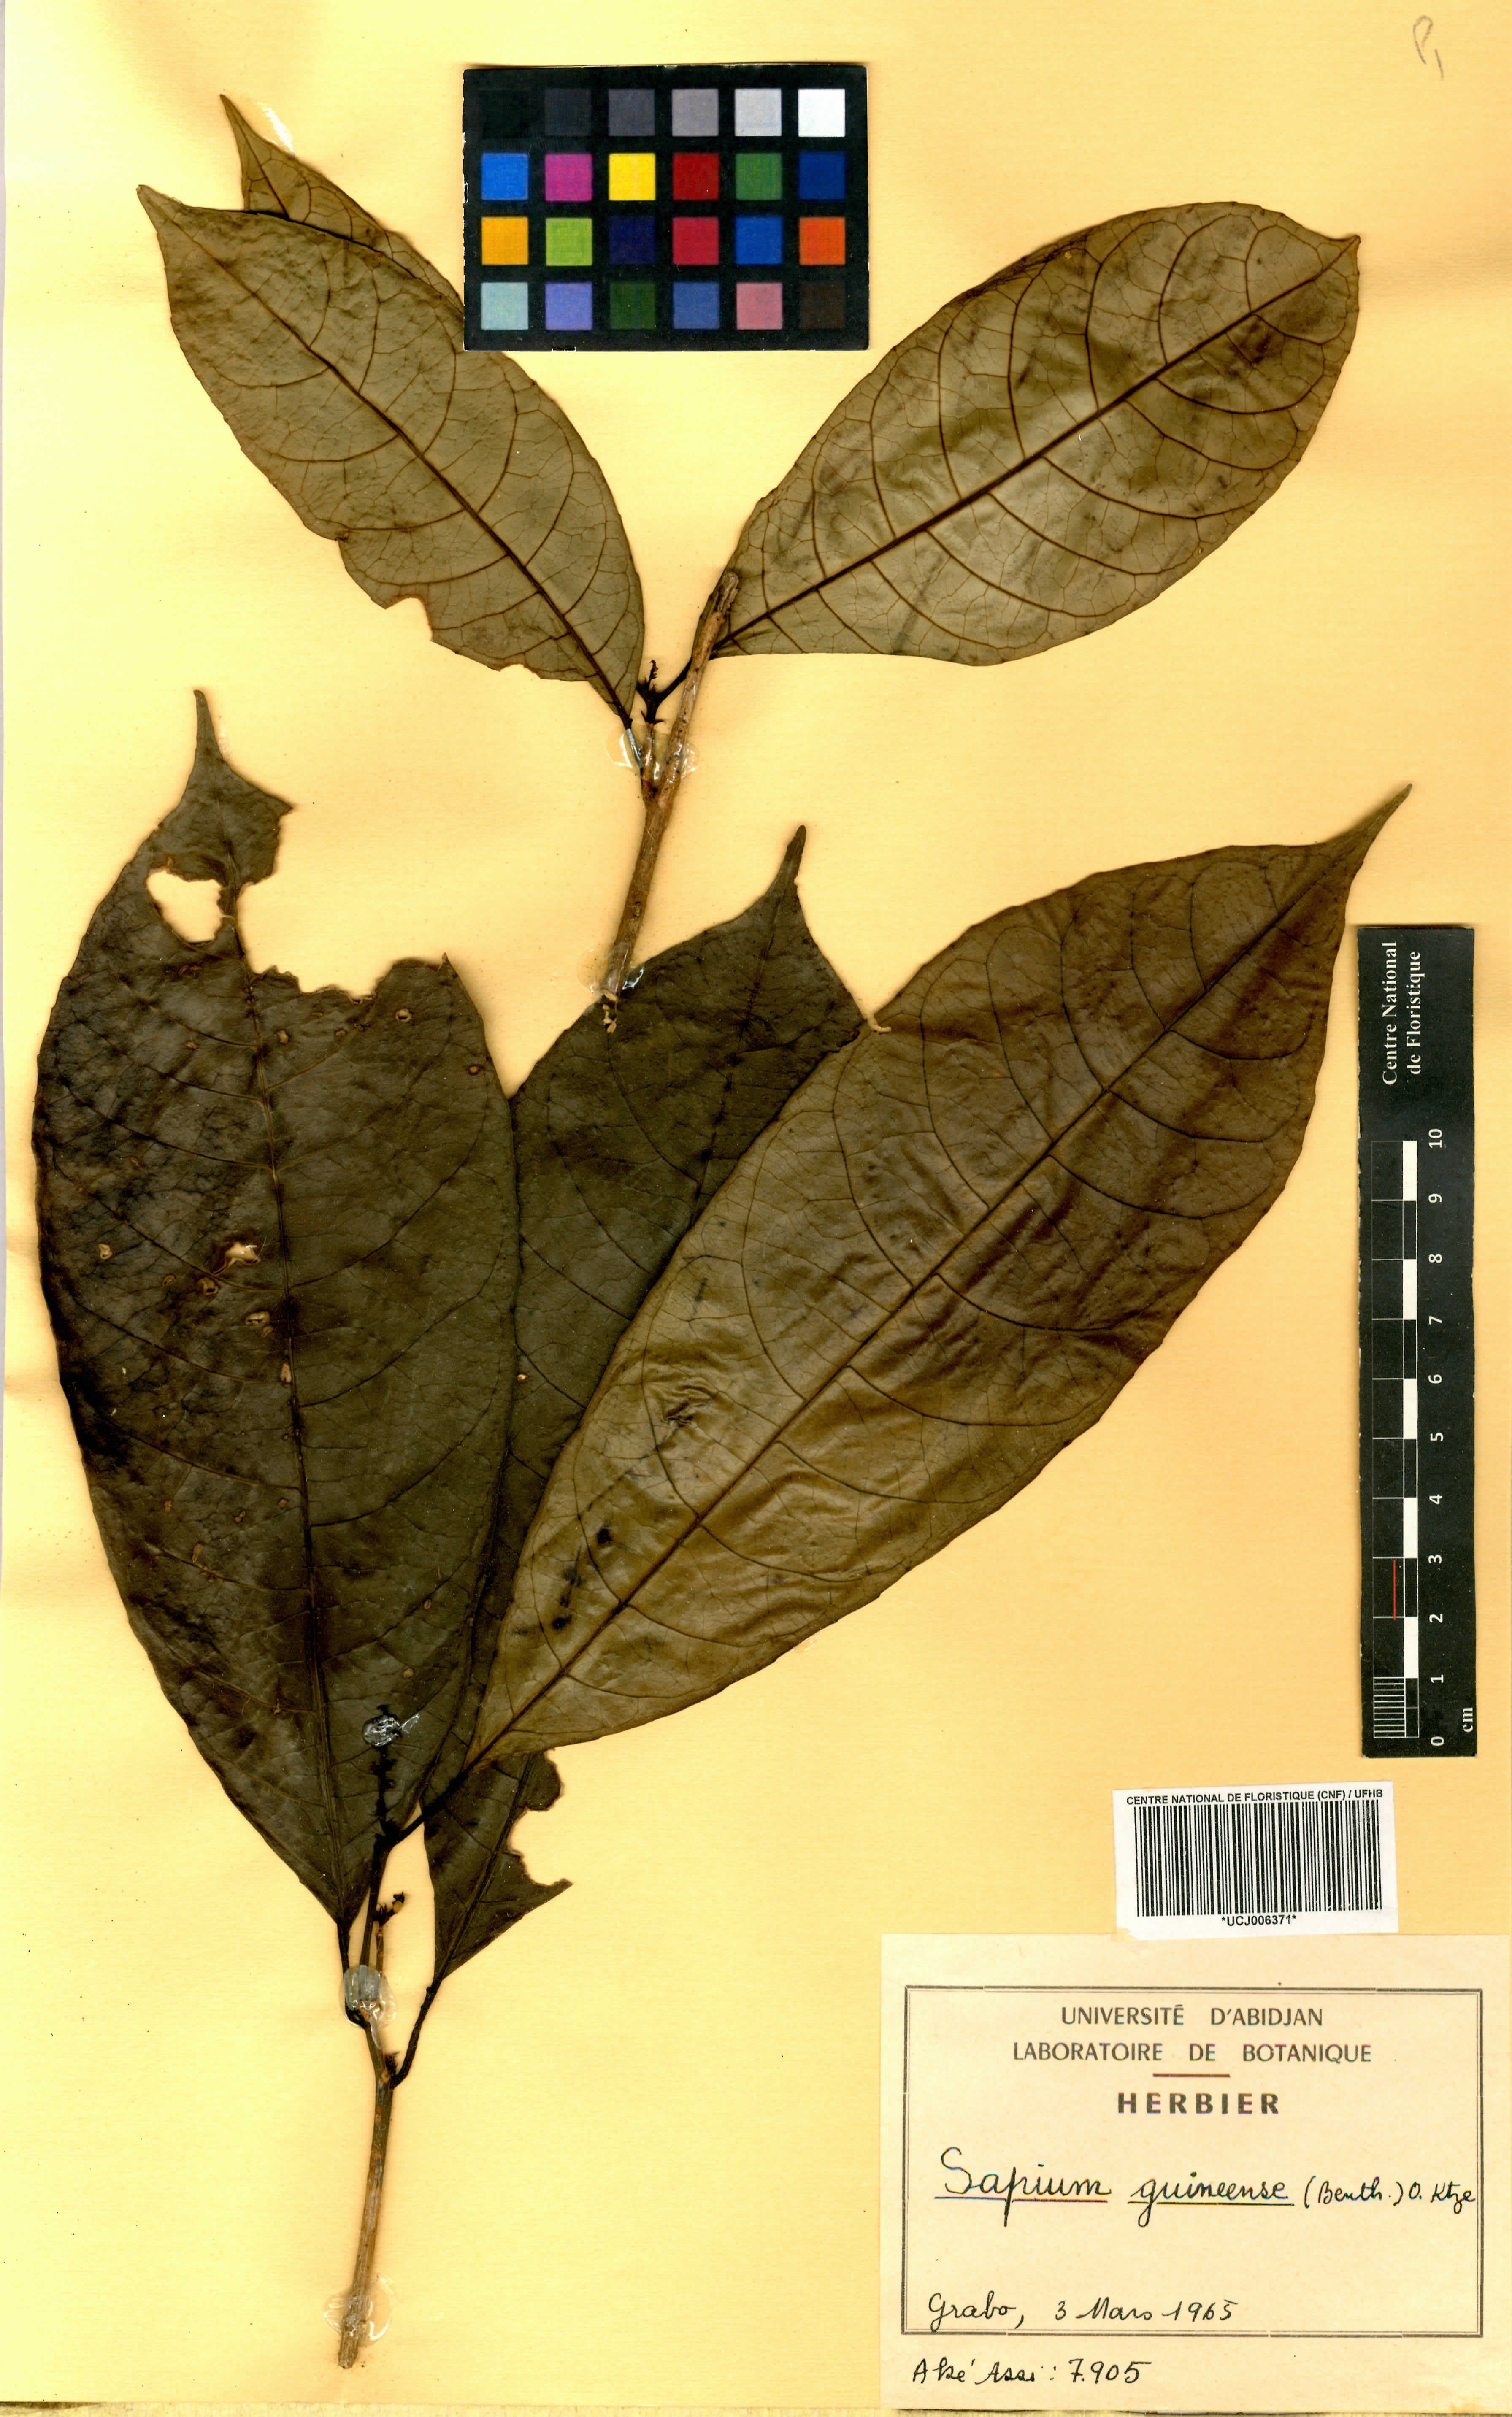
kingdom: Plantae
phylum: Tracheophyta
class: Magnoliopsida
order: Malpighiales
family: Euphorbiaceae
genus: Excoecaria
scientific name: Excoecaria guineensis
